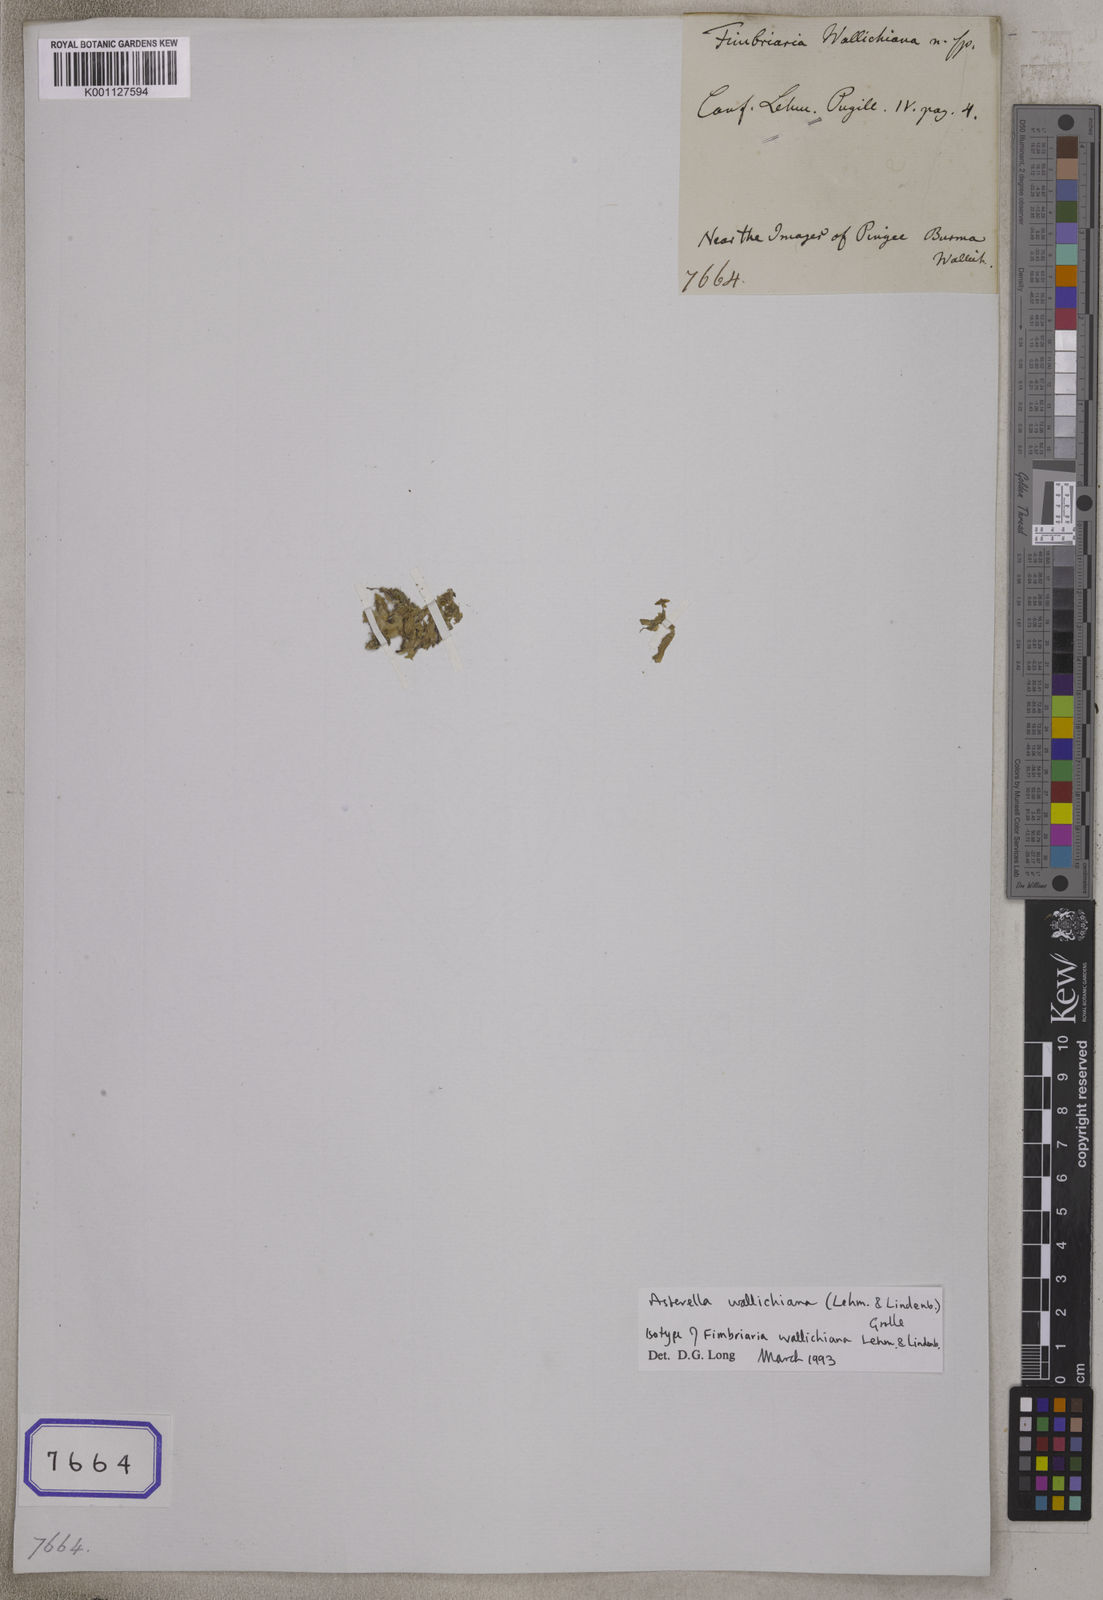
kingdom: Plantae
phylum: Marchantiophyta
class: Marchantiopsida
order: Marchantiales
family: Aytoniaceae
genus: Fimbriaria
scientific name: Fimbriaria
